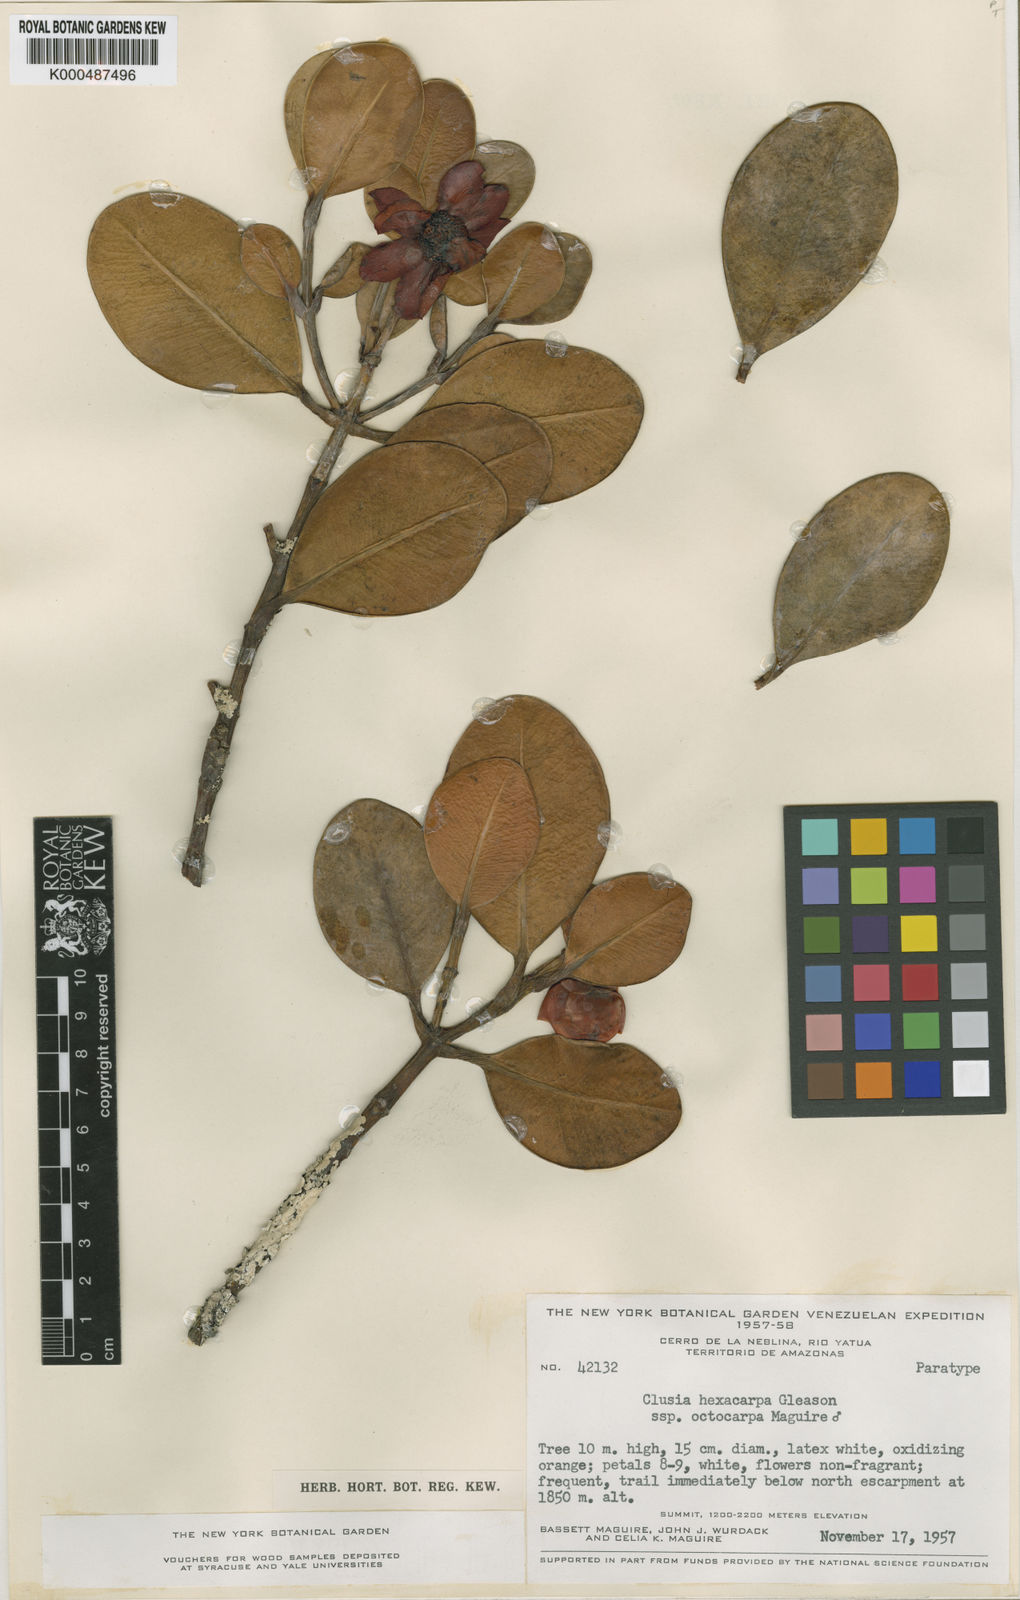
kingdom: Plantae
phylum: Tracheophyta
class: Magnoliopsida
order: Malpighiales
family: Clusiaceae
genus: Clusia
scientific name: Clusia hexacarpa
